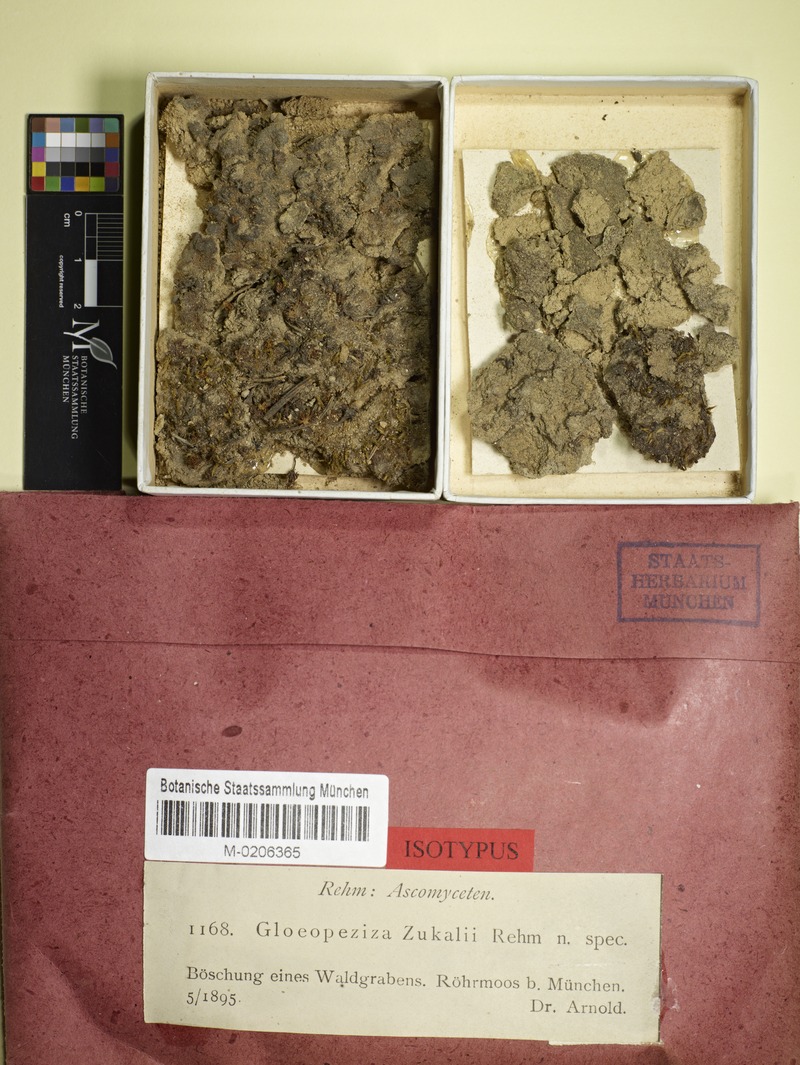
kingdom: Fungi
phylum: Ascomycota
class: Leotiomycetes
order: Helotiales
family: Helotiaceae
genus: Gloeopeziza
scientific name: Gloeopeziza zukalii
